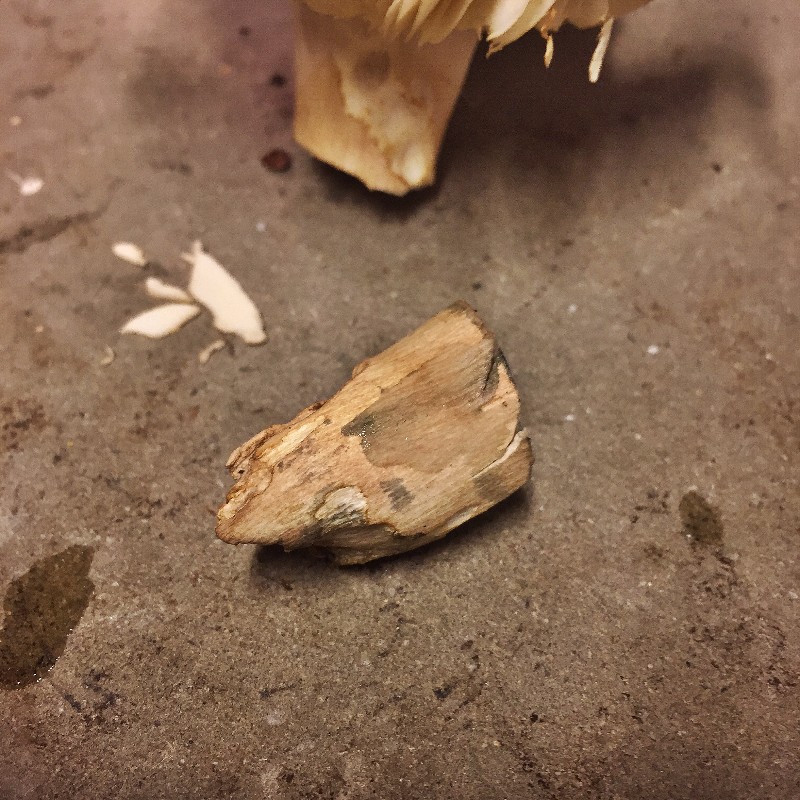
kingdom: Fungi
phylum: Basidiomycota
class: Agaricomycetes
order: Russulales
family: Russulaceae
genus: Russula
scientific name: Russula xerampelina
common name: hummer-skørhat
